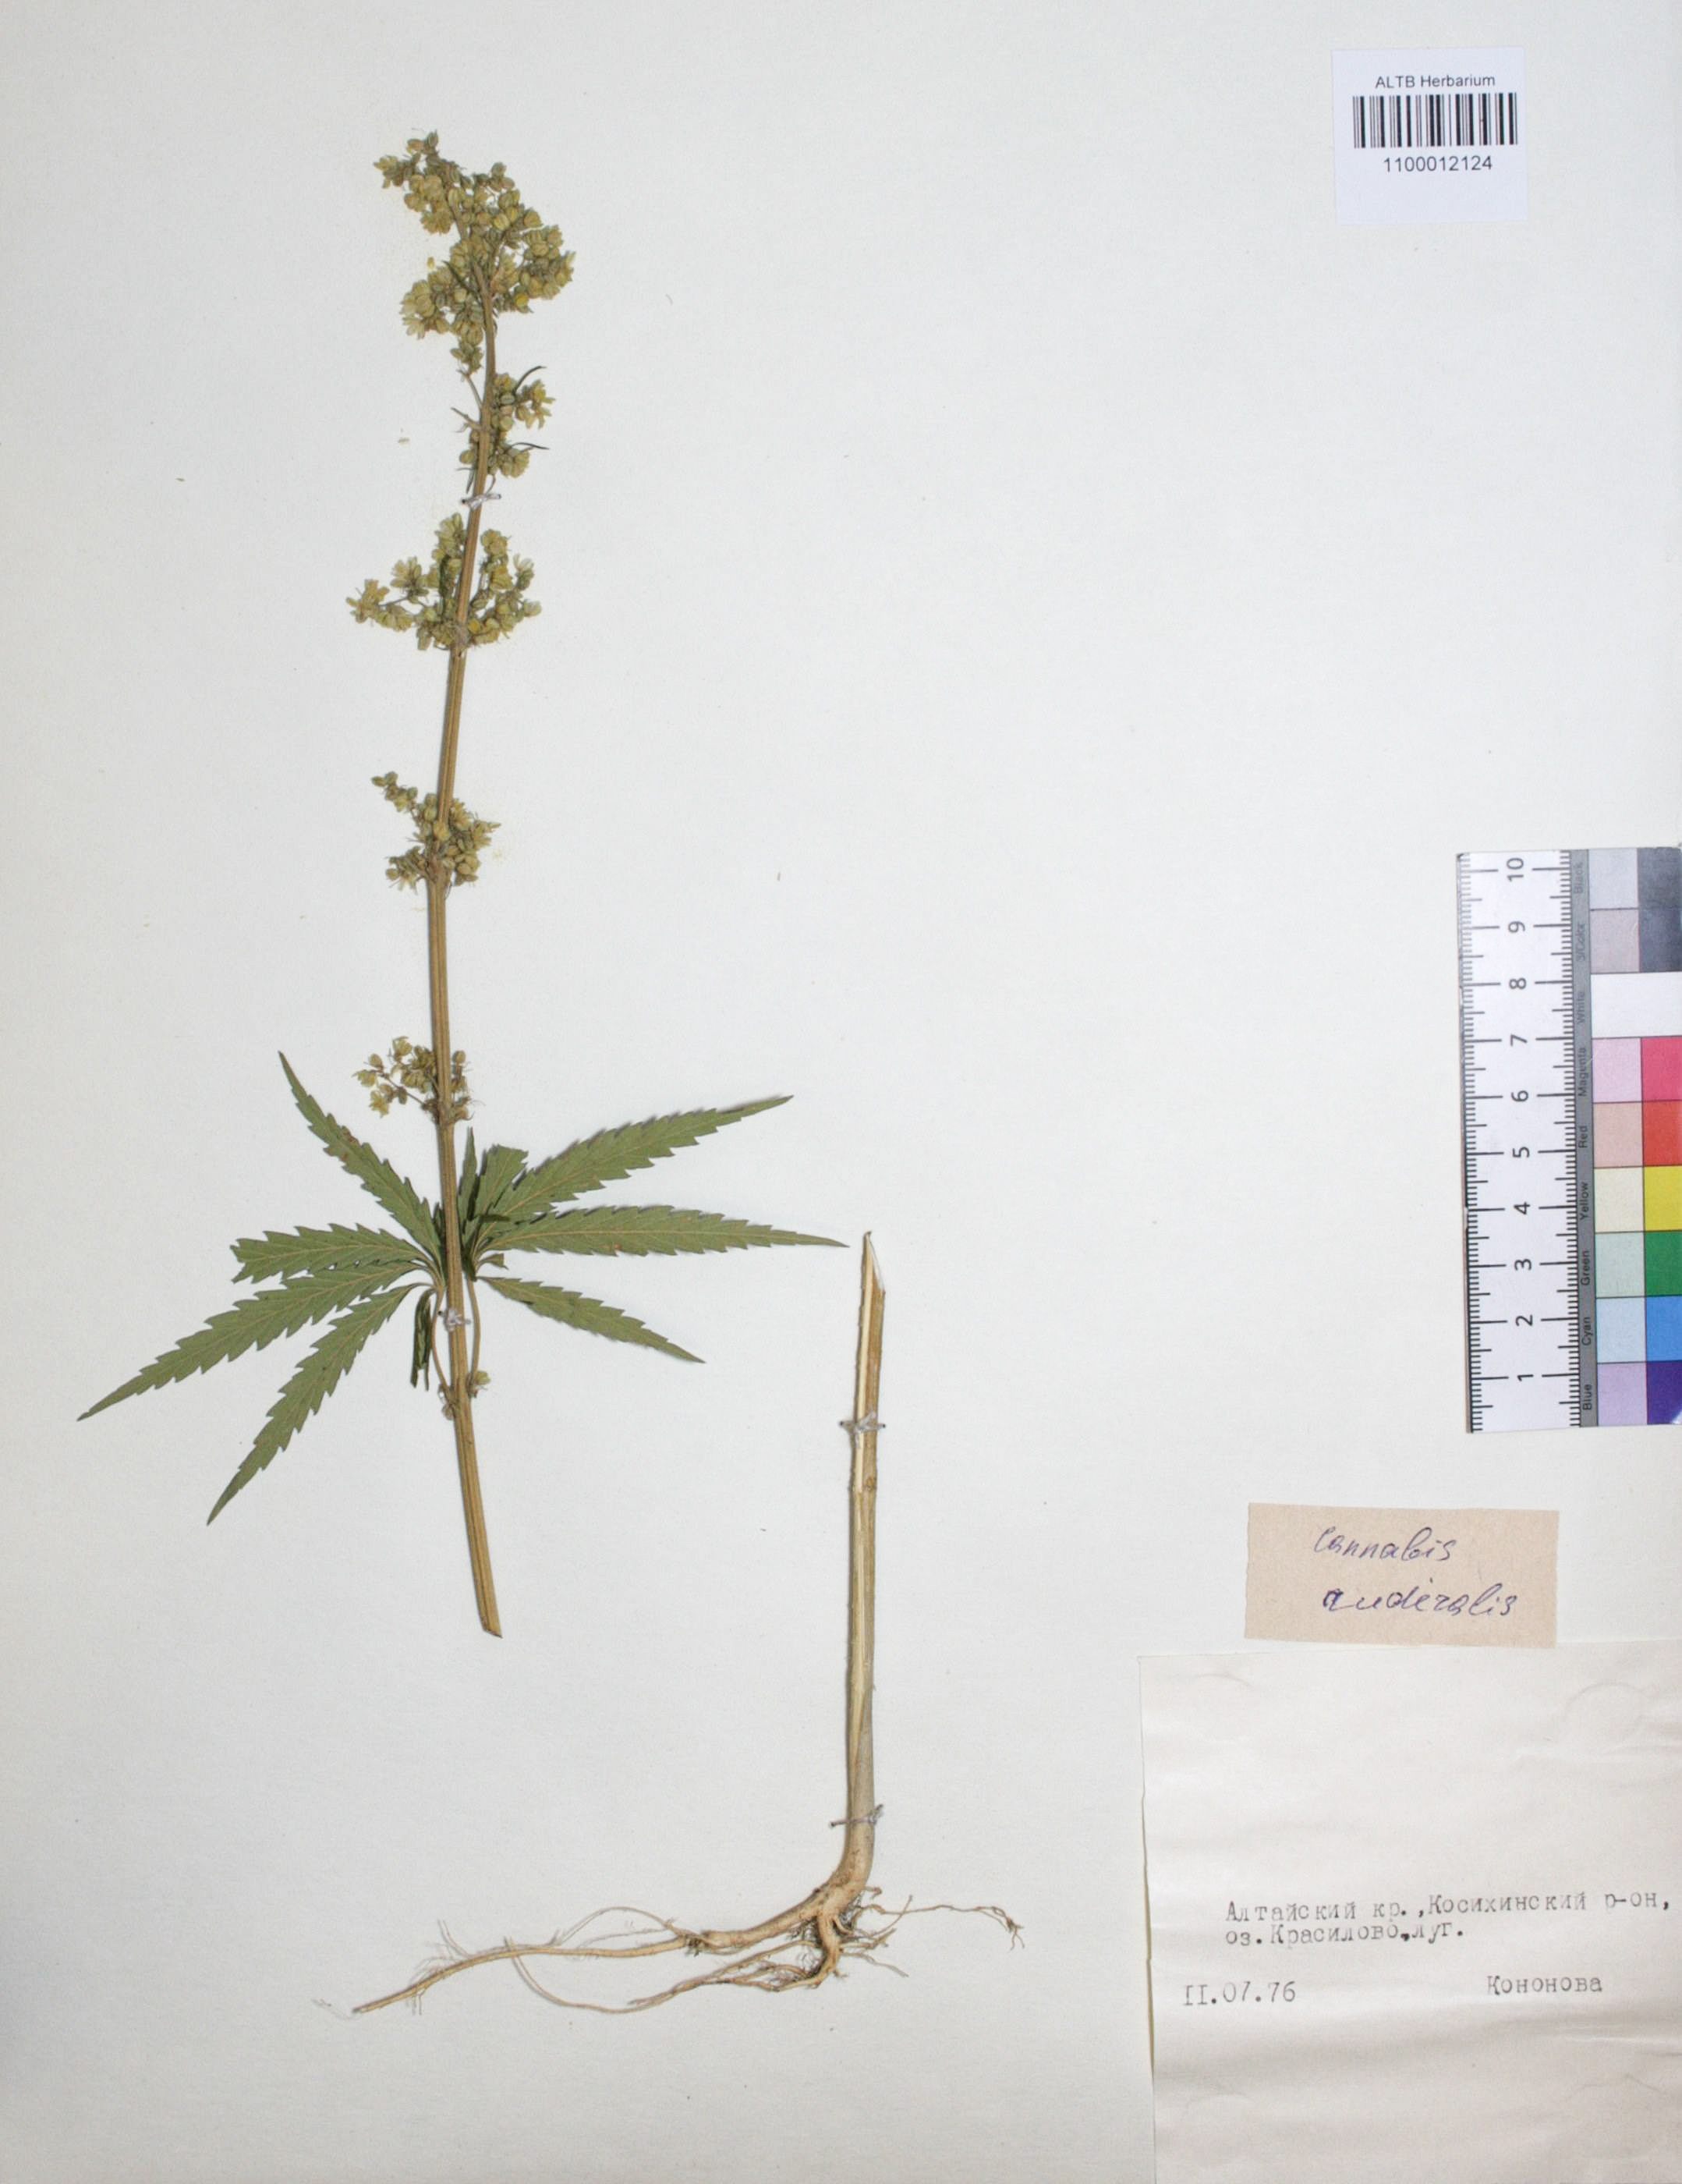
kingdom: Plantae
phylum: Tracheophyta
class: Magnoliopsida
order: Rosales
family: Cannabaceae
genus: Cannabis
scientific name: Cannabis sativa
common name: Hemp
